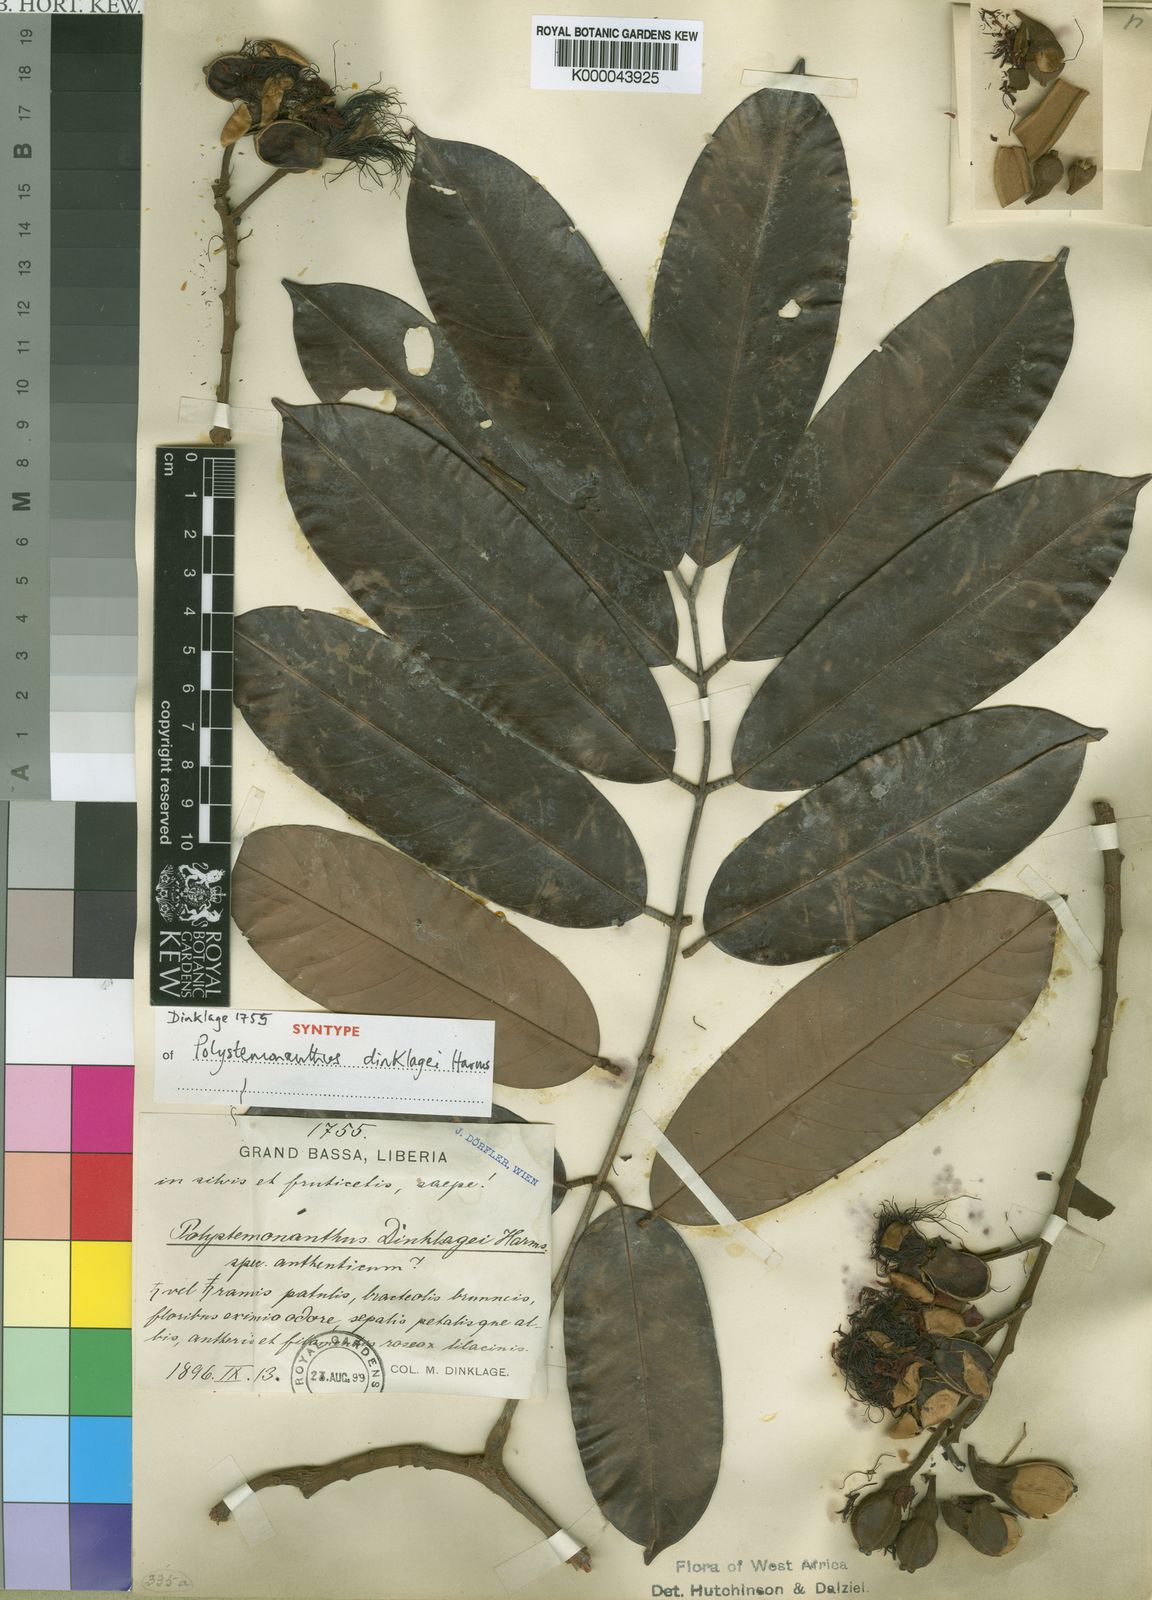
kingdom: Plantae
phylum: Tracheophyta
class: Magnoliopsida
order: Fabales
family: Fabaceae
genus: Polystemonanthus
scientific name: Polystemonanthus dinklagei
